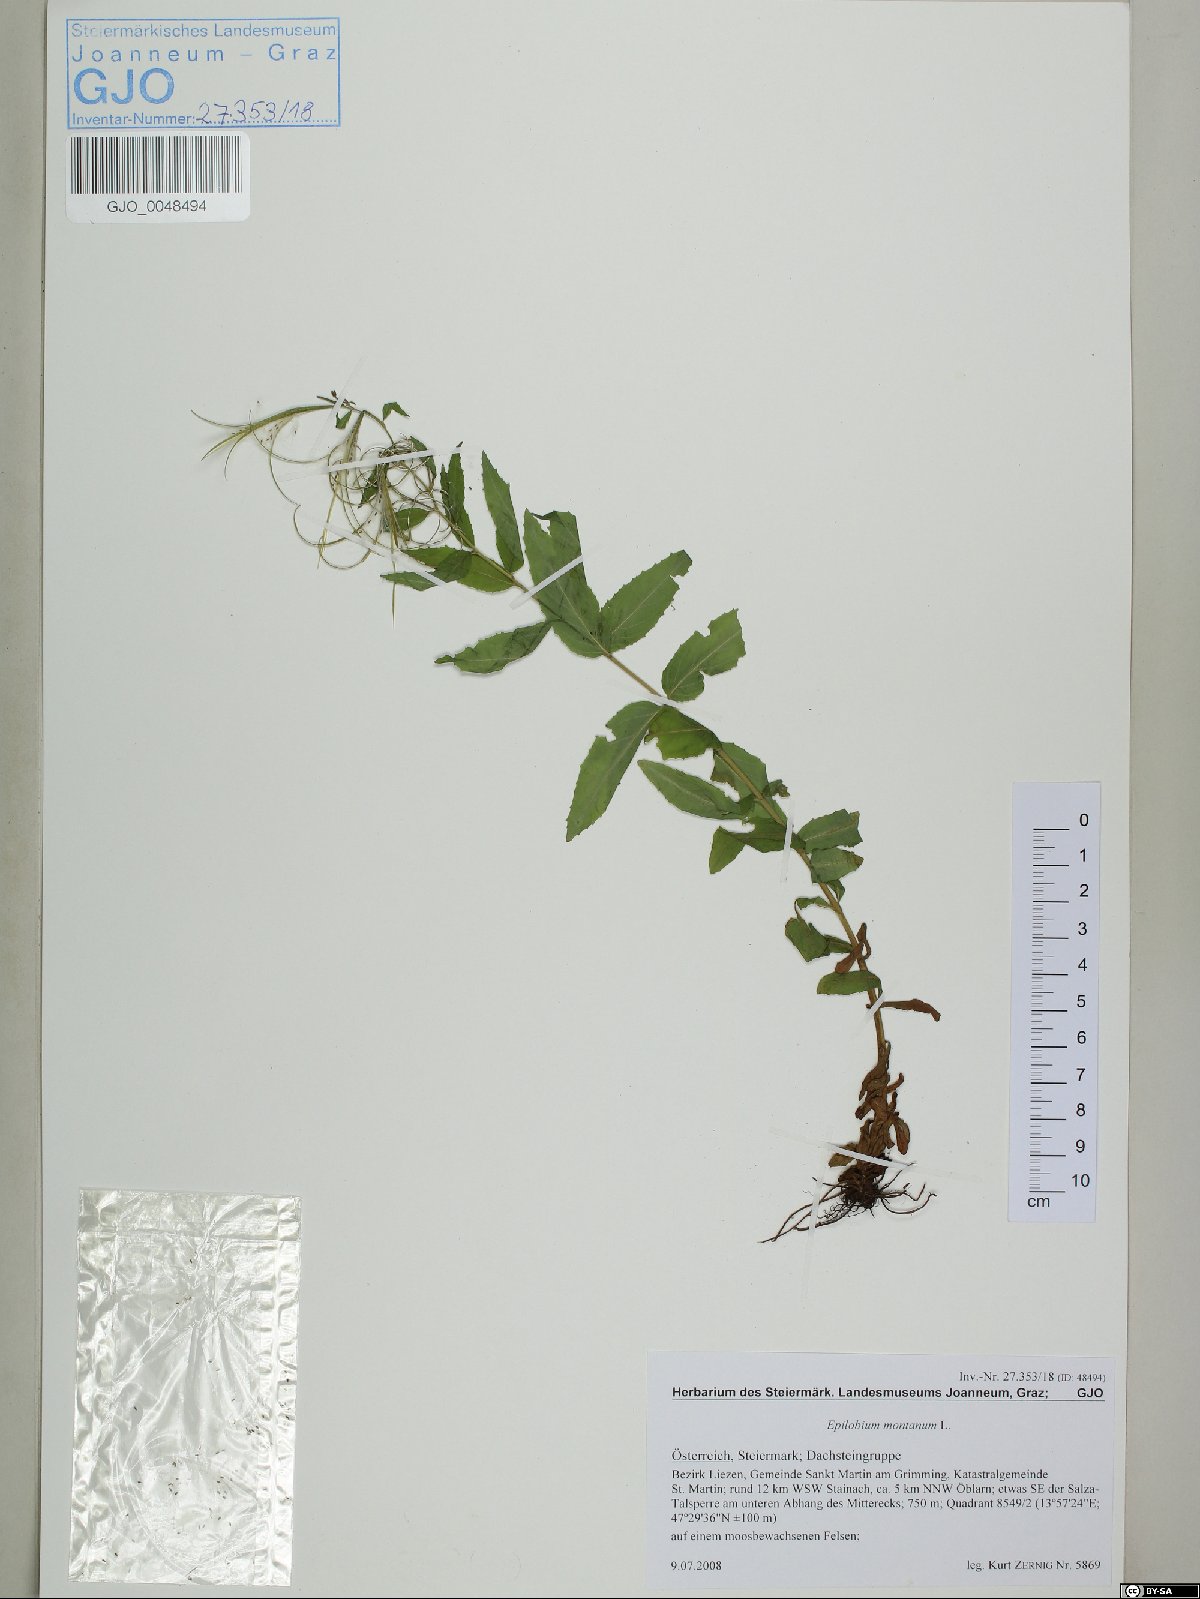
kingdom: Plantae
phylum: Tracheophyta
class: Magnoliopsida
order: Myrtales
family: Onagraceae
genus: Epilobium
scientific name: Epilobium montanum
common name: Broad-leaved willowherb
